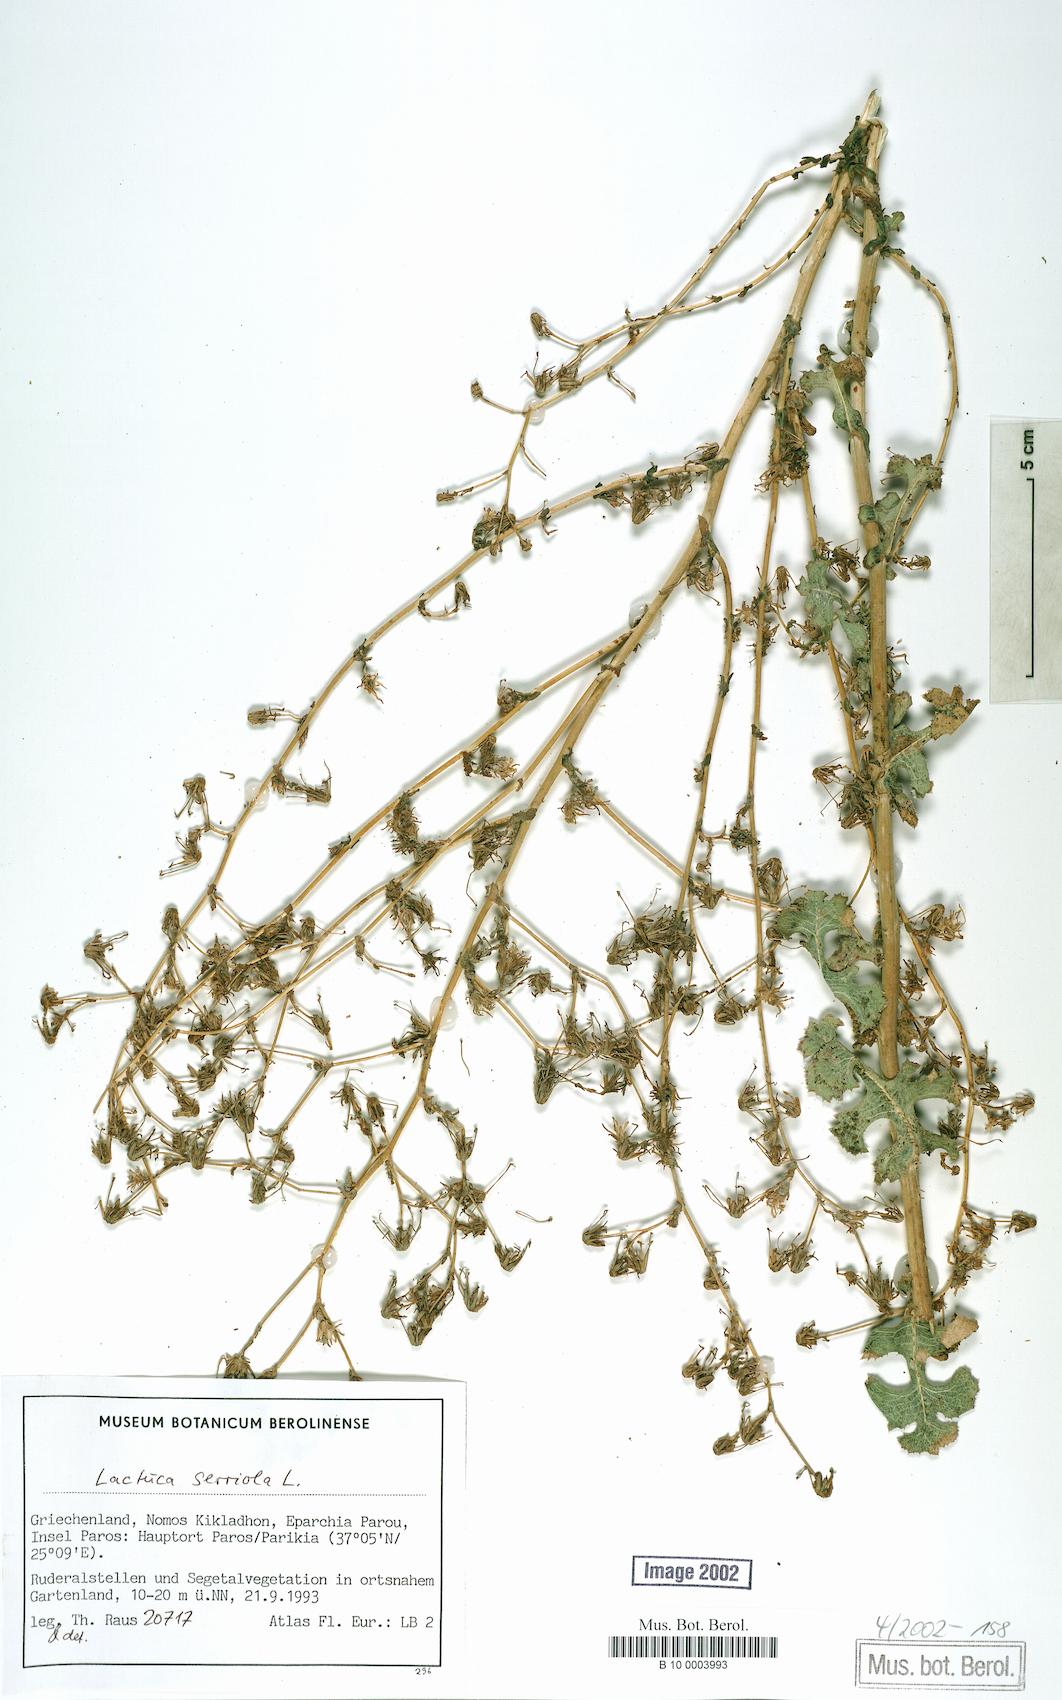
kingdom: Plantae
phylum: Tracheophyta
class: Magnoliopsida
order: Asterales
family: Asteraceae
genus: Lactuca
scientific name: Lactuca serriola
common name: Prickly lettuce
